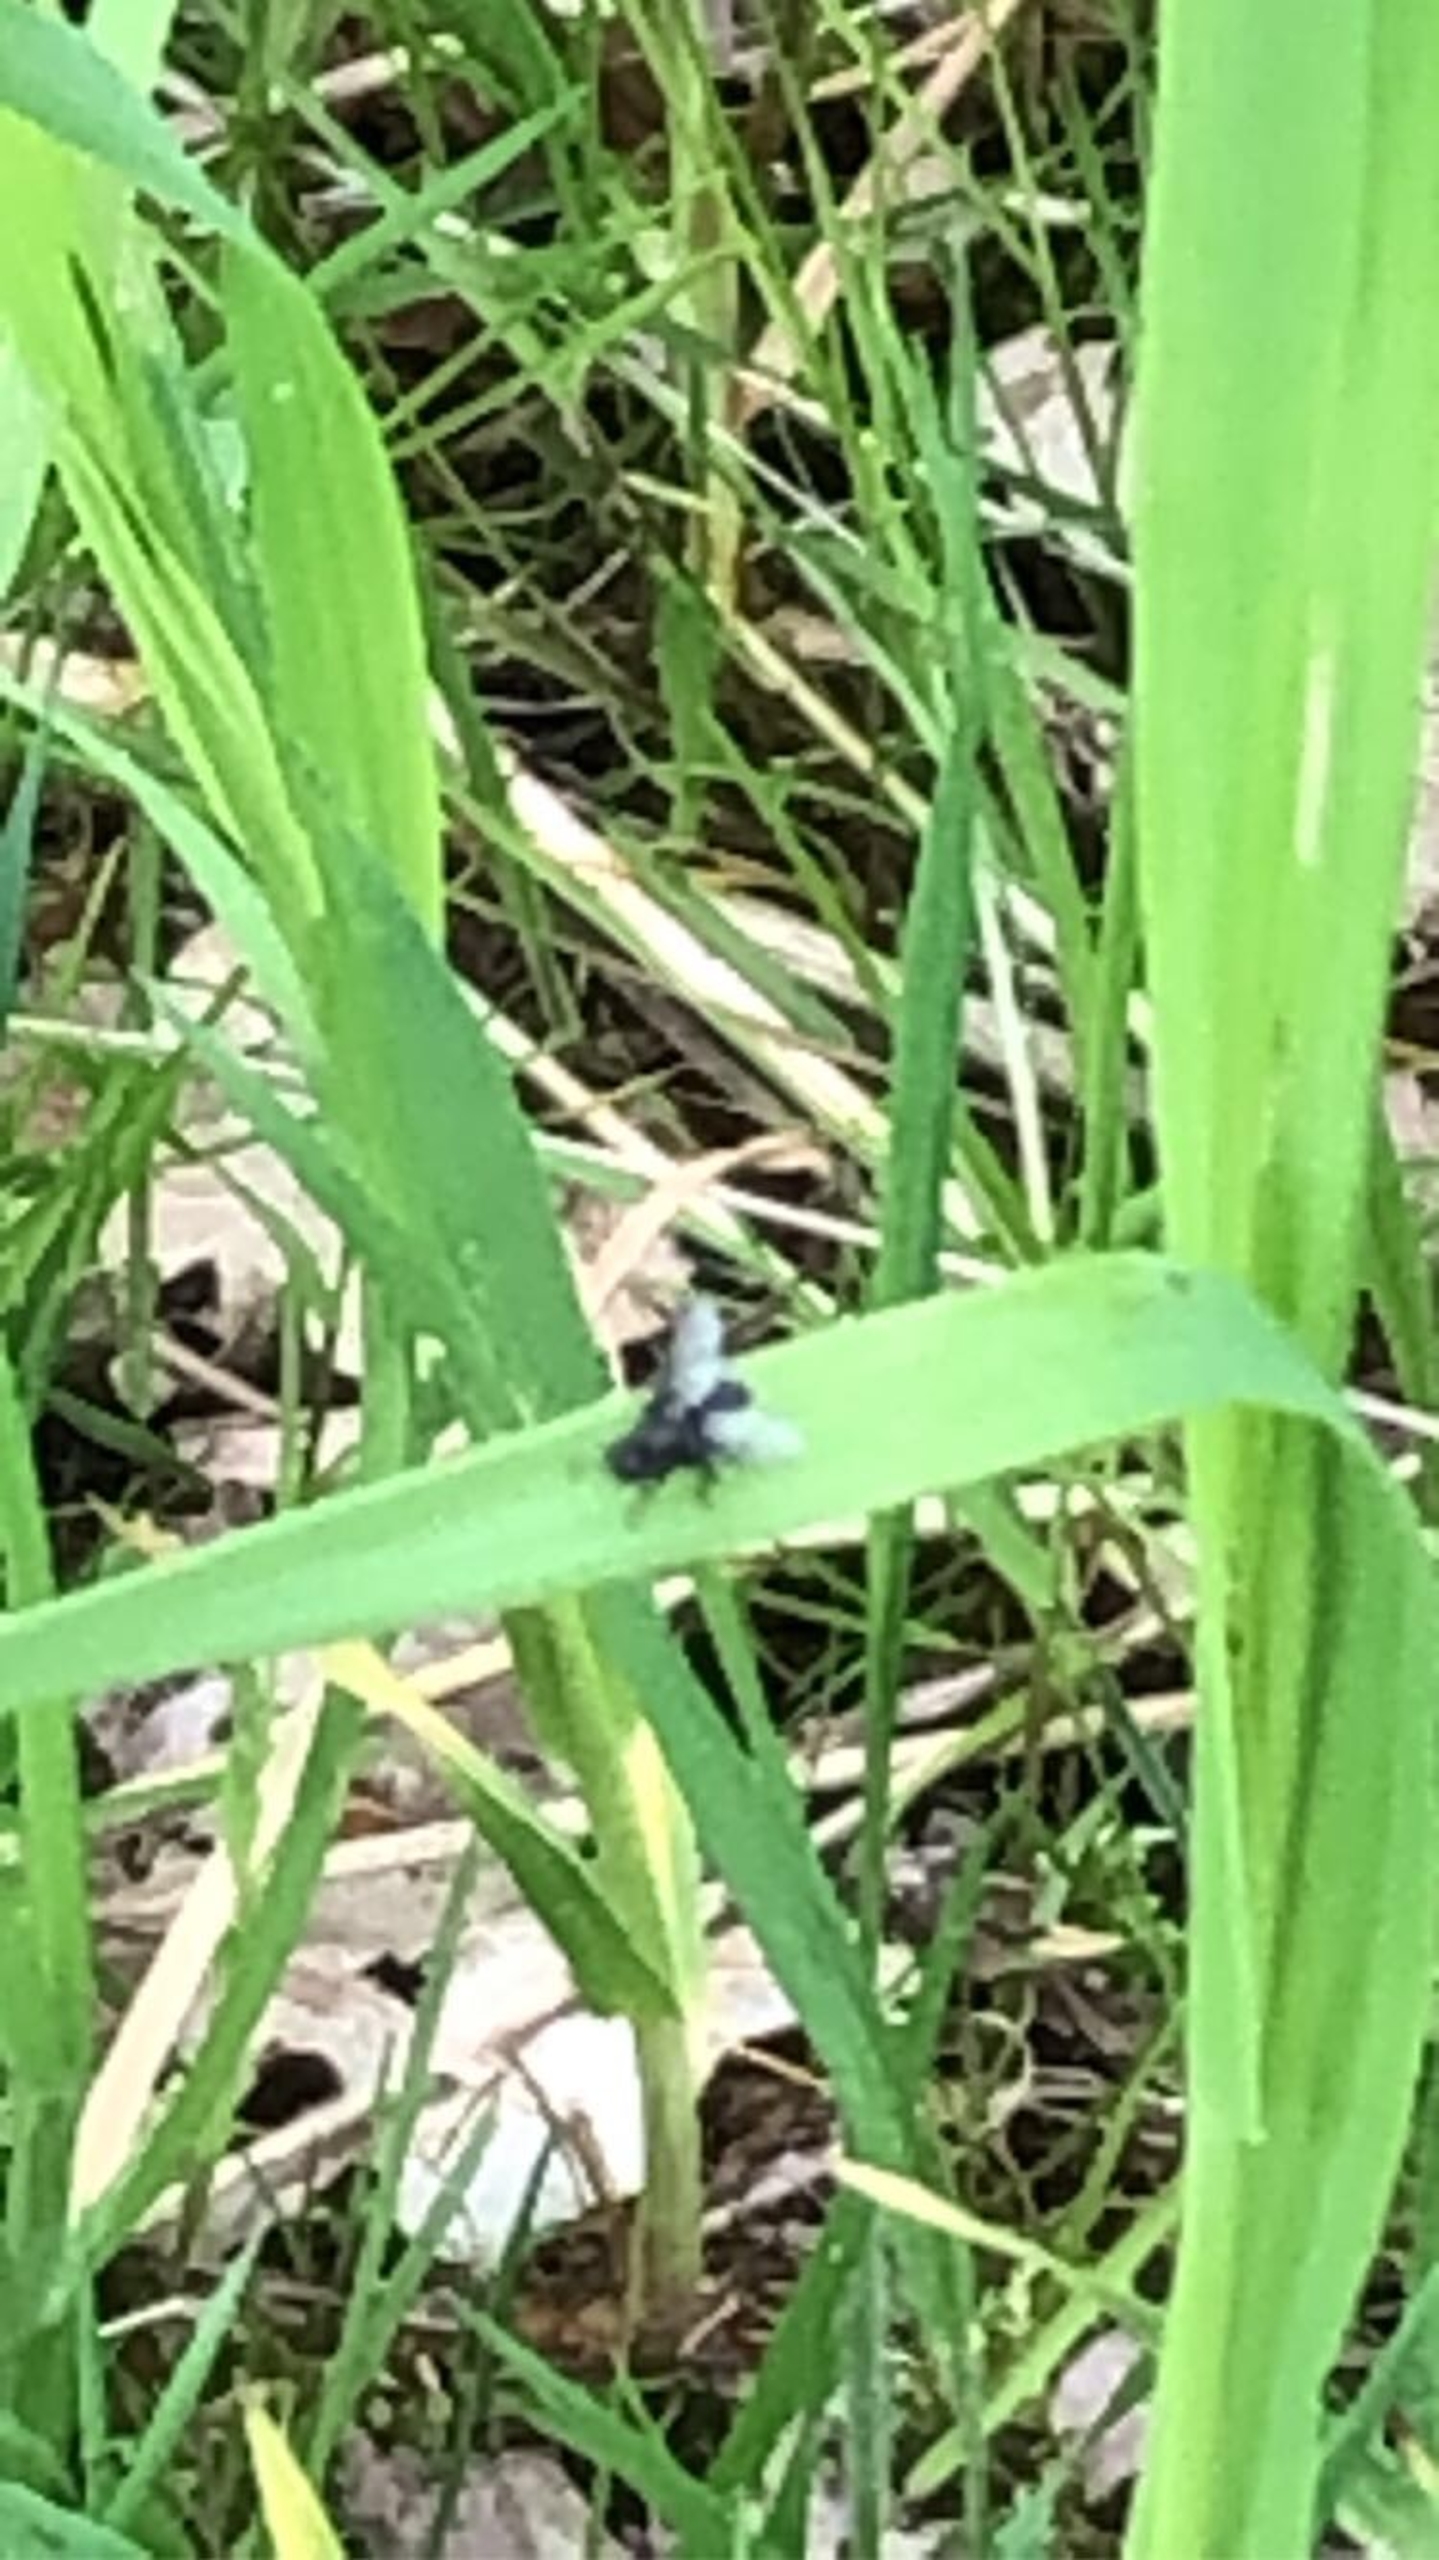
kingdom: Animalia
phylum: Arthropoda
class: Insecta
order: Diptera
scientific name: Diptera
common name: Tovinger
